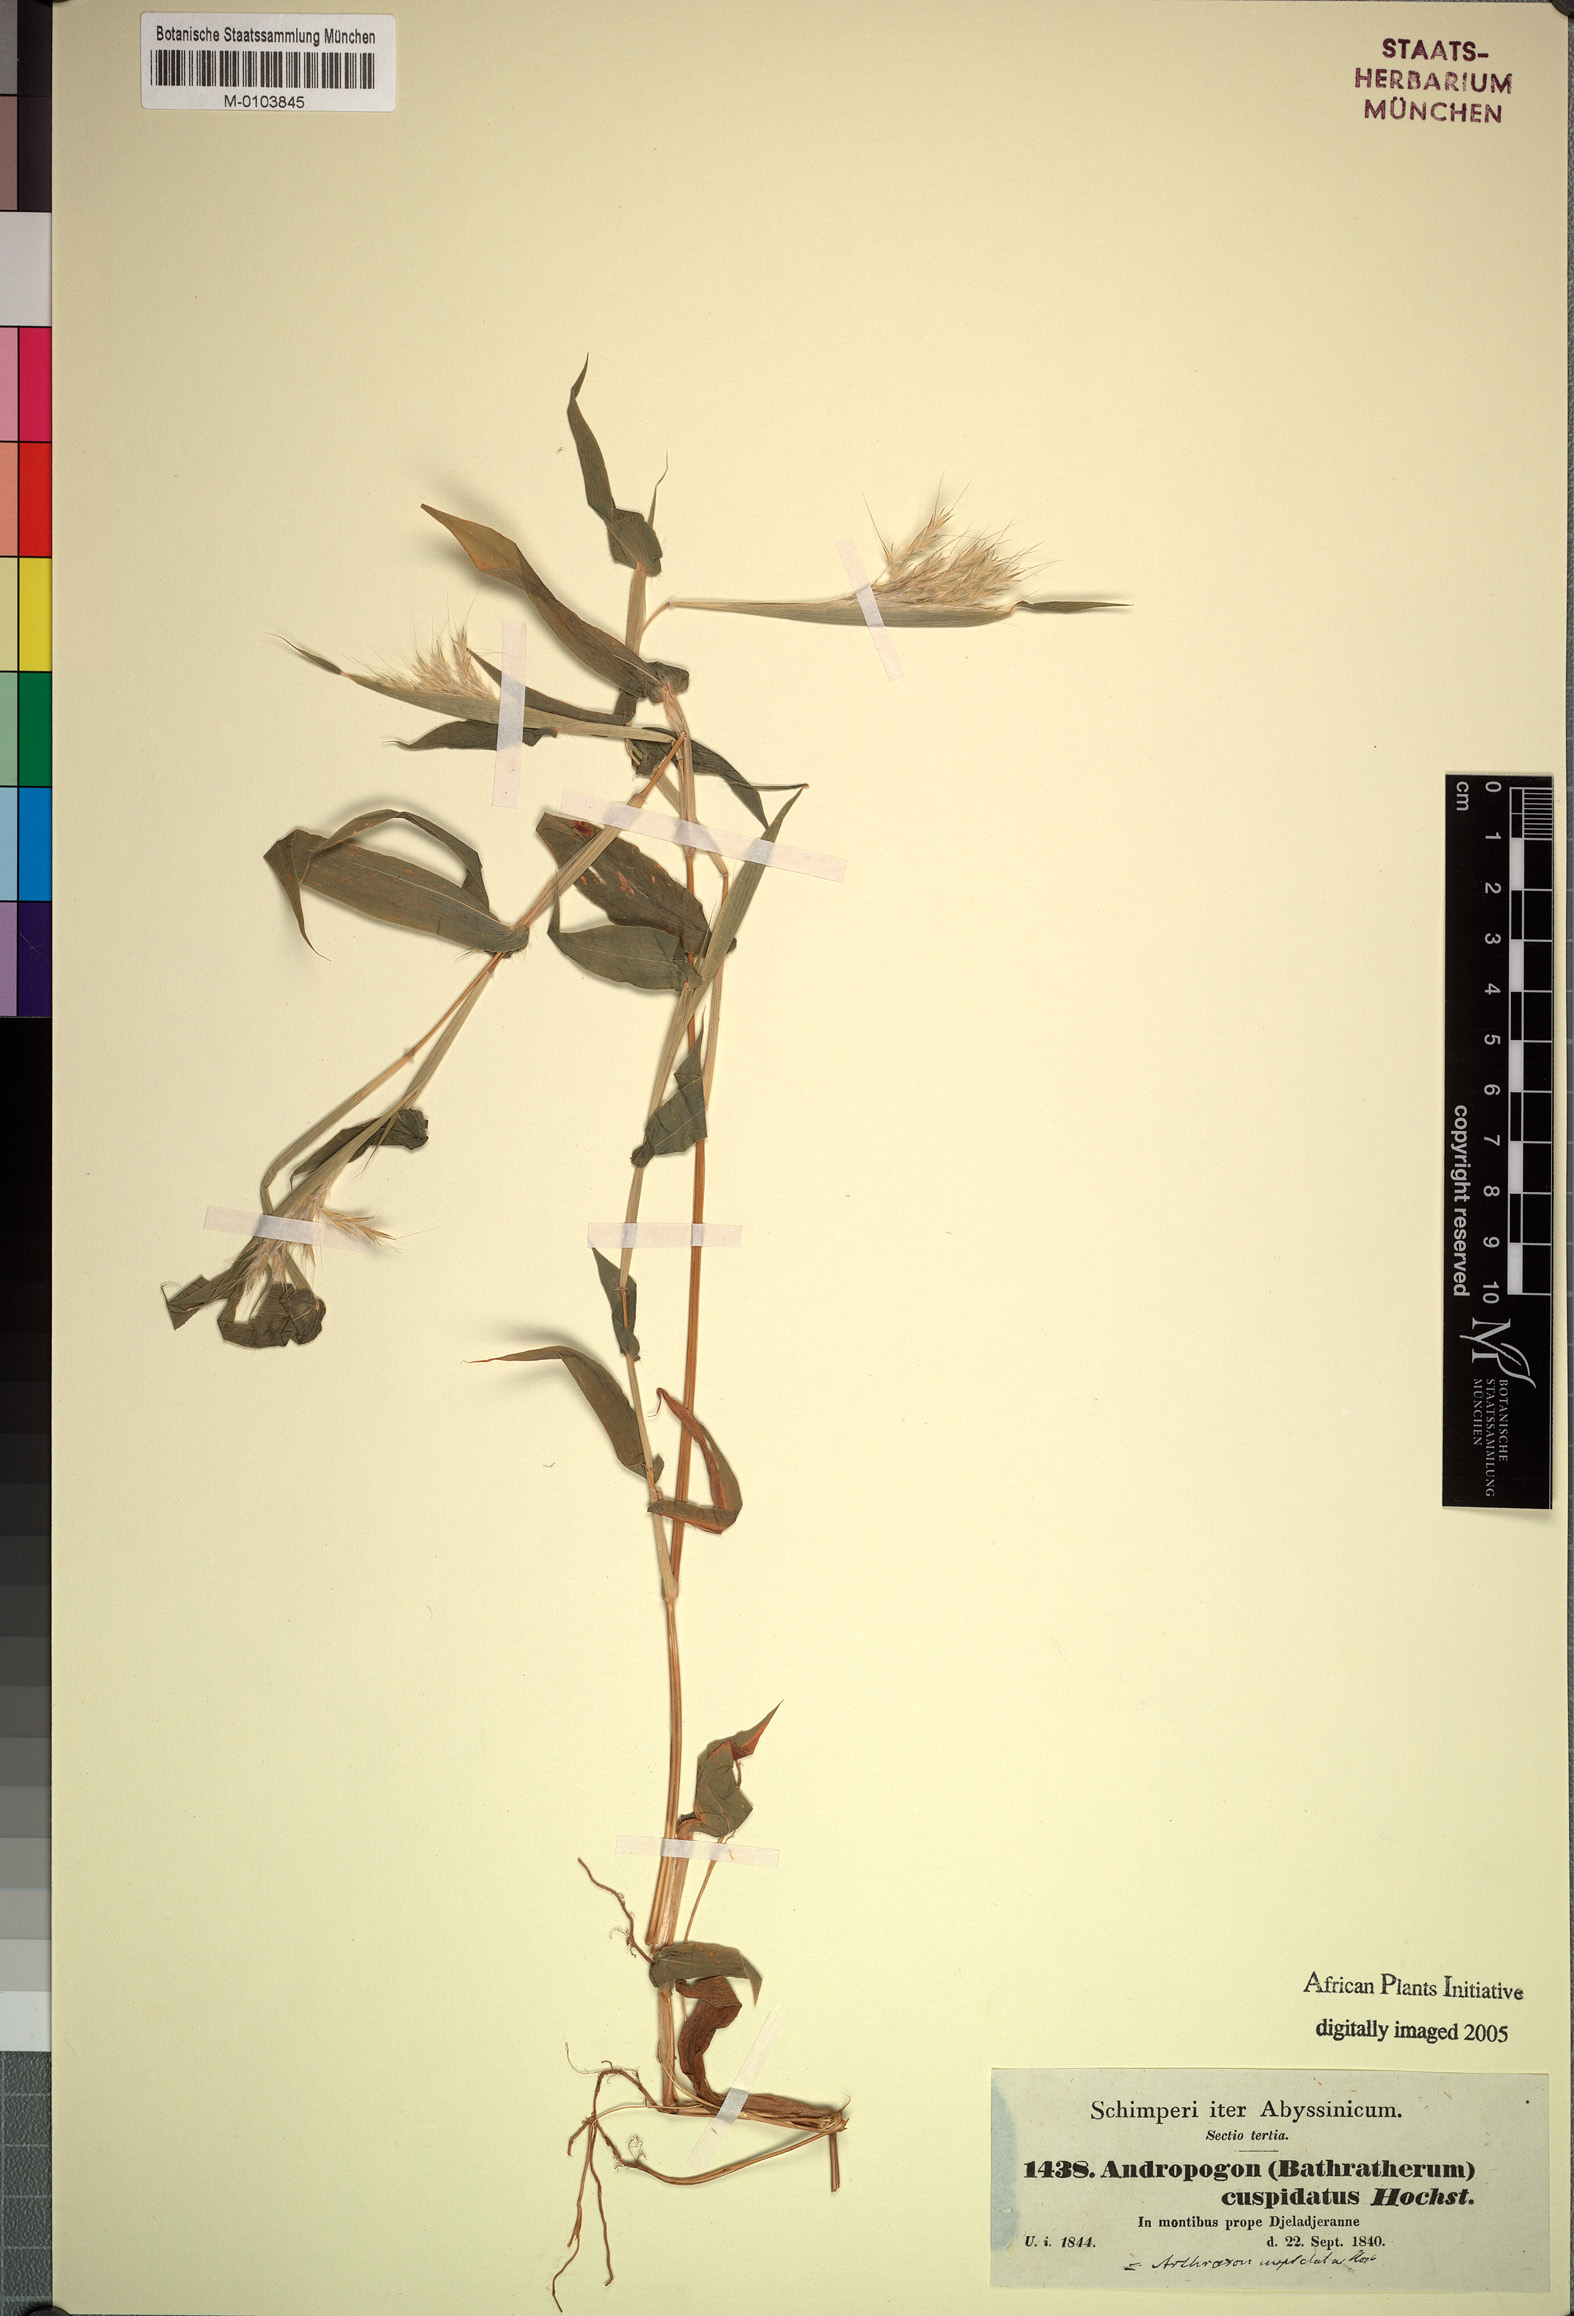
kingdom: Plantae
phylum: Tracheophyta
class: Liliopsida
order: Poales
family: Poaceae
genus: Arthraxon
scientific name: Arthraxon cuspidatus
